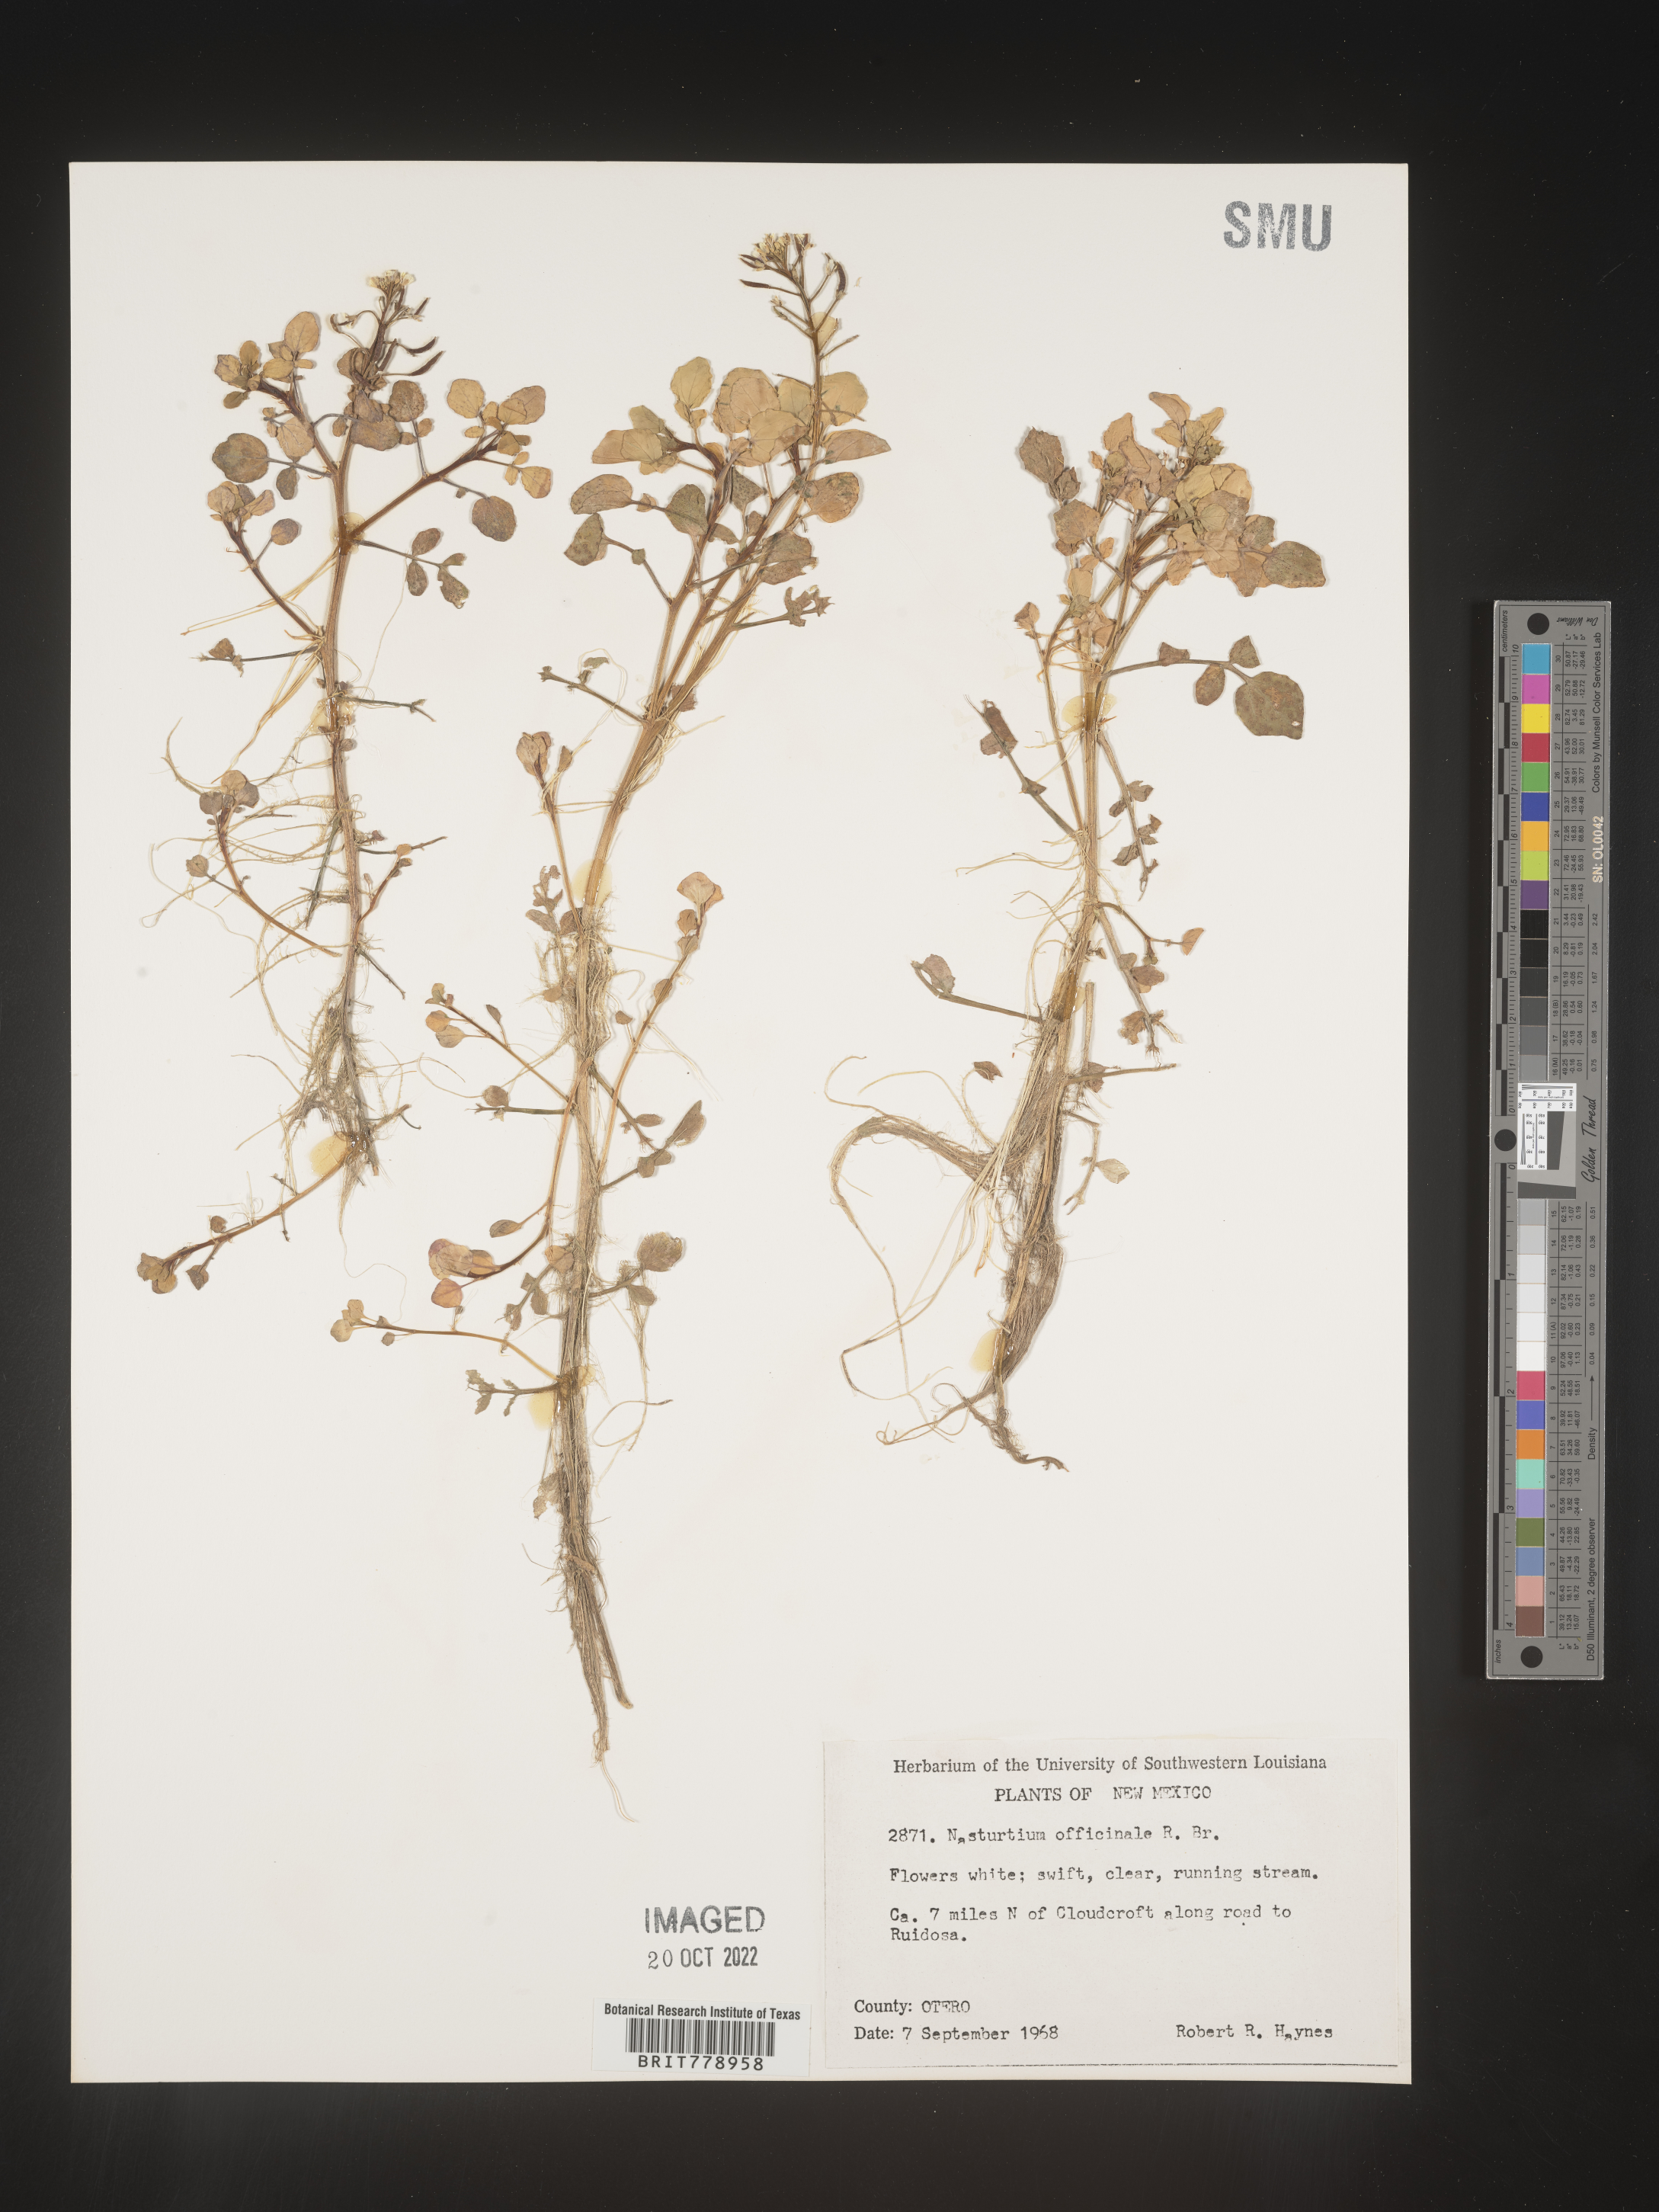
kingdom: Plantae
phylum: Tracheophyta
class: Magnoliopsida
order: Brassicales
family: Brassicaceae
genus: Nasturtium
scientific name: Nasturtium officinale
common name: Watercress
